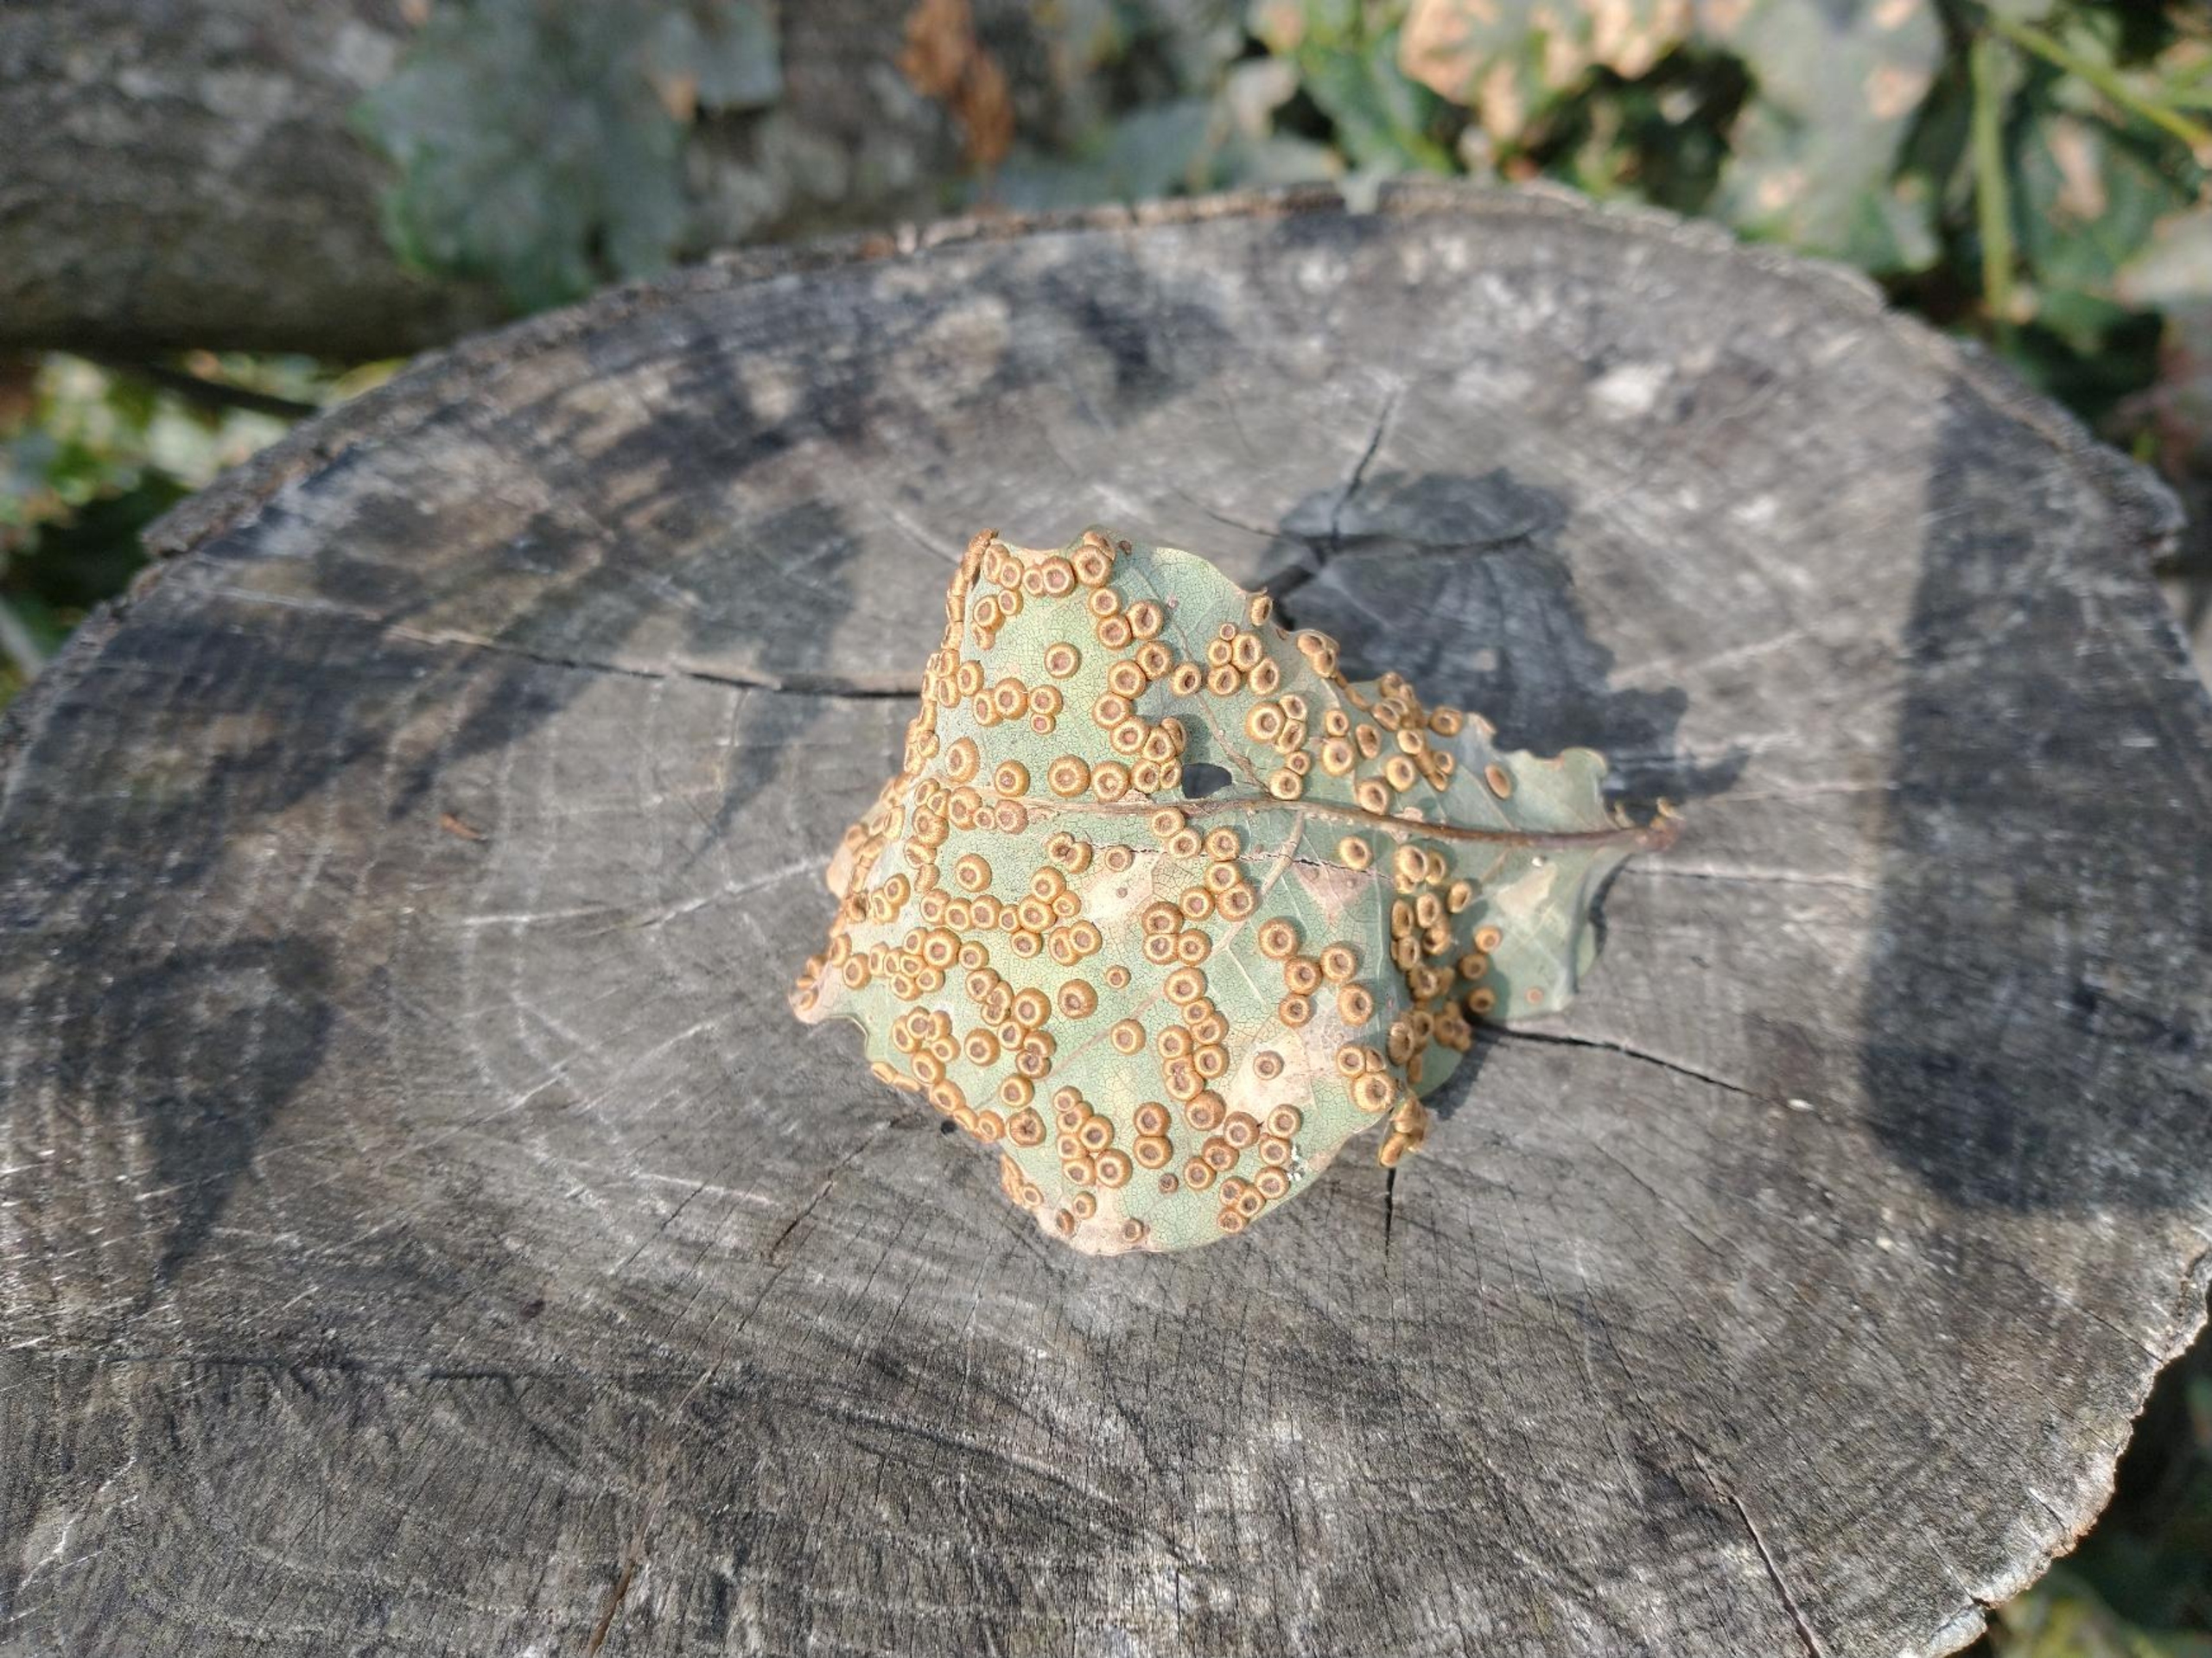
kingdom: Animalia
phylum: Arthropoda
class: Insecta
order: Hymenoptera
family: Cynipidae
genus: Neuroterus
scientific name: Neuroterus numismalis
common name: Knapgalhveps
